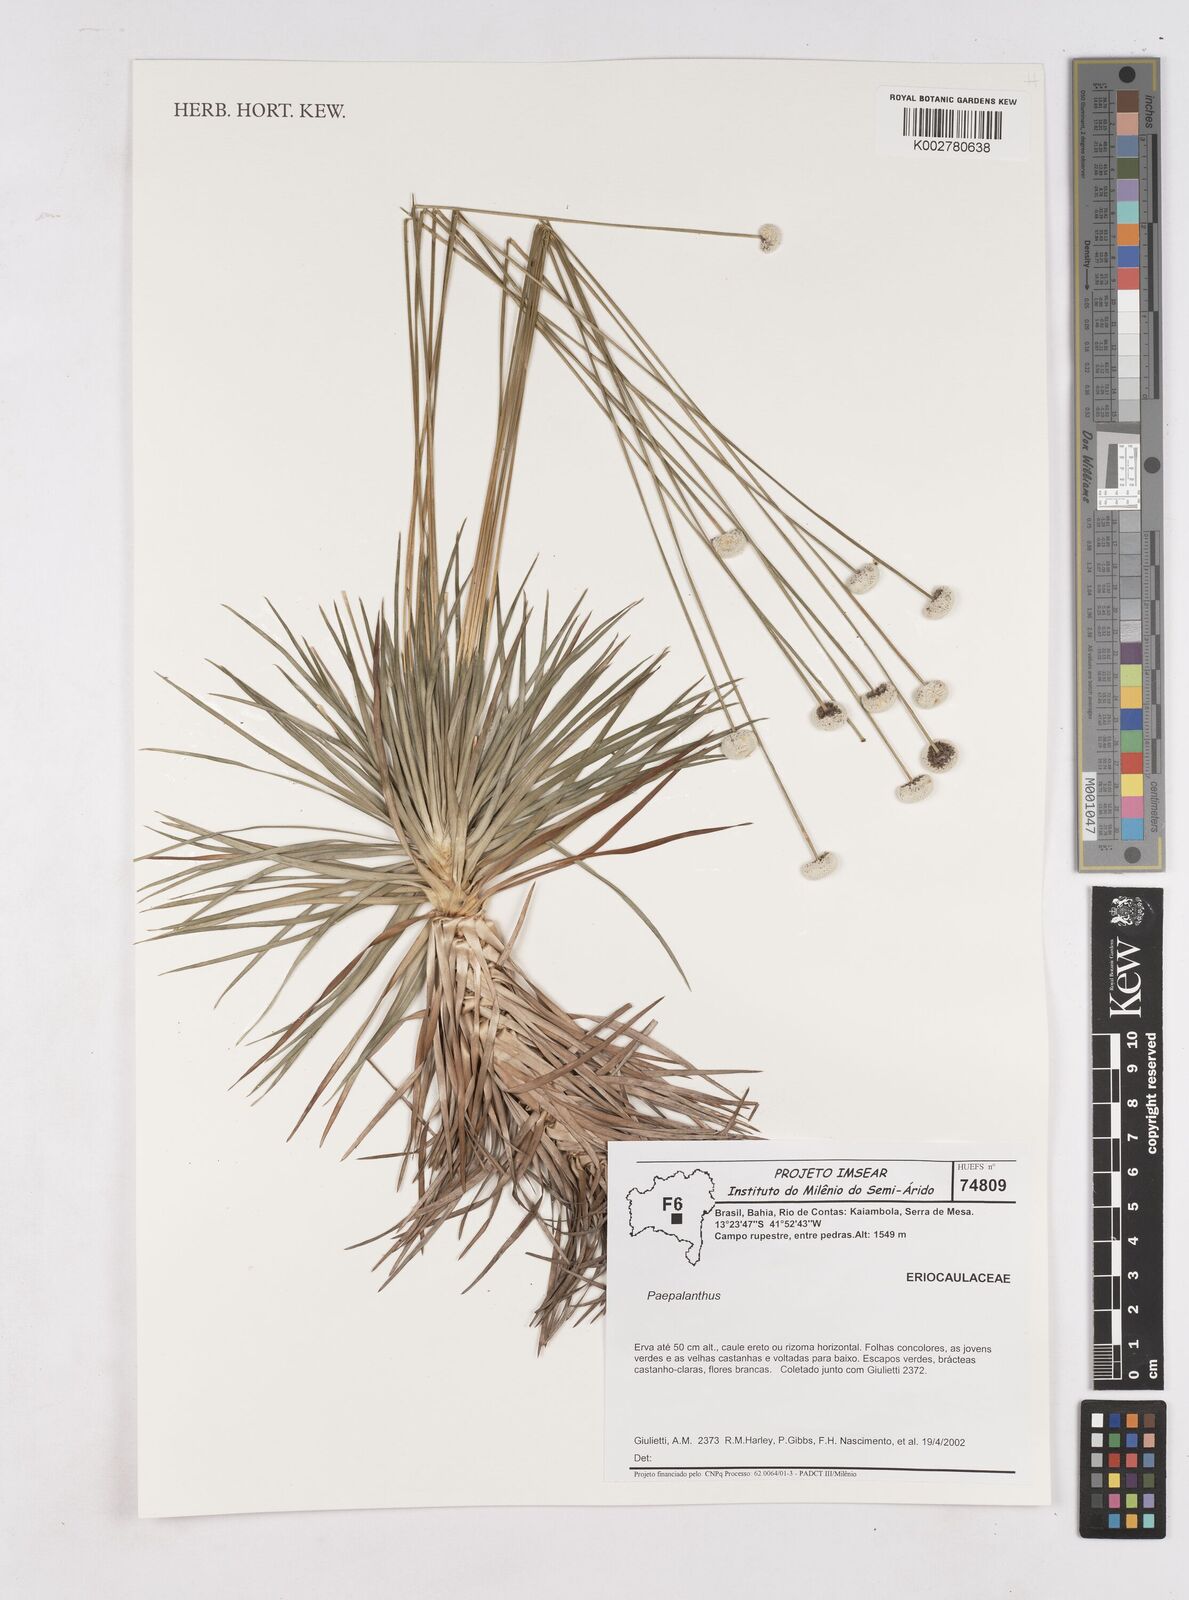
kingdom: Plantae
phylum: Tracheophyta
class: Liliopsida
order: Poales
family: Eriocaulaceae
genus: Paepalanthus
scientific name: Paepalanthus microcaulon
